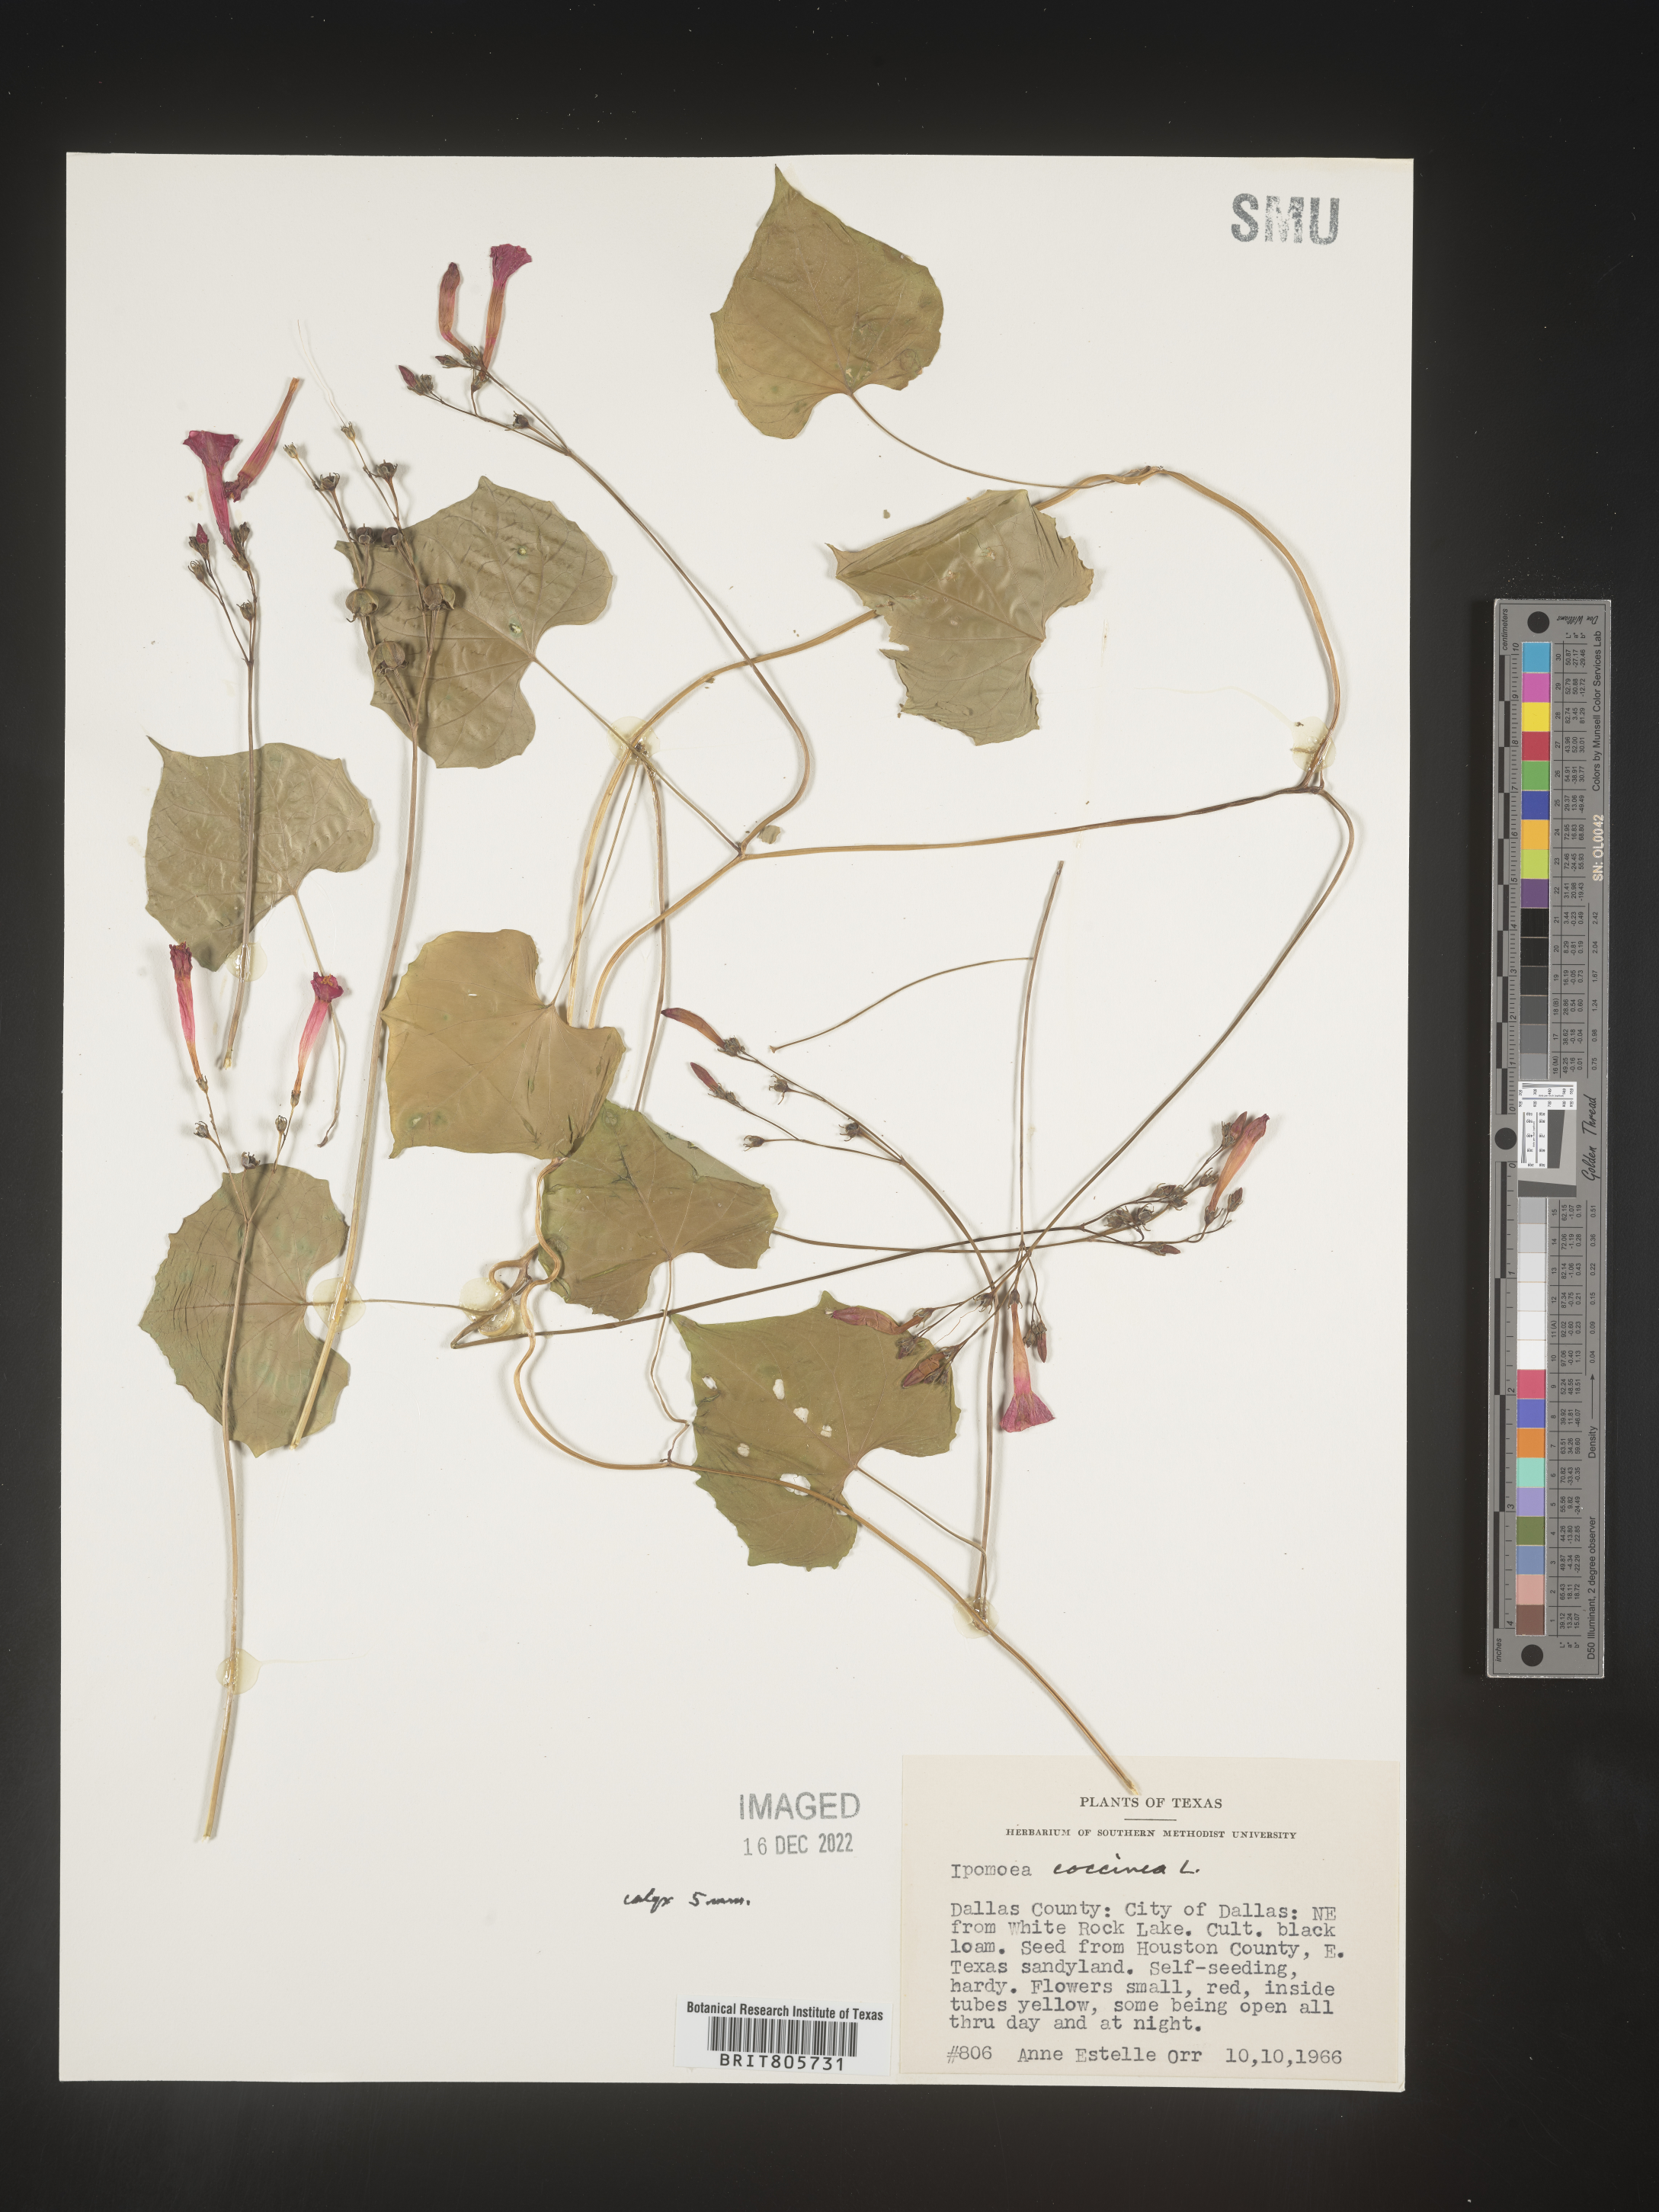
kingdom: Plantae
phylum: Tracheophyta
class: Magnoliopsida
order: Solanales
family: Convolvulaceae
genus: Ipomoea
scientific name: Ipomoea
